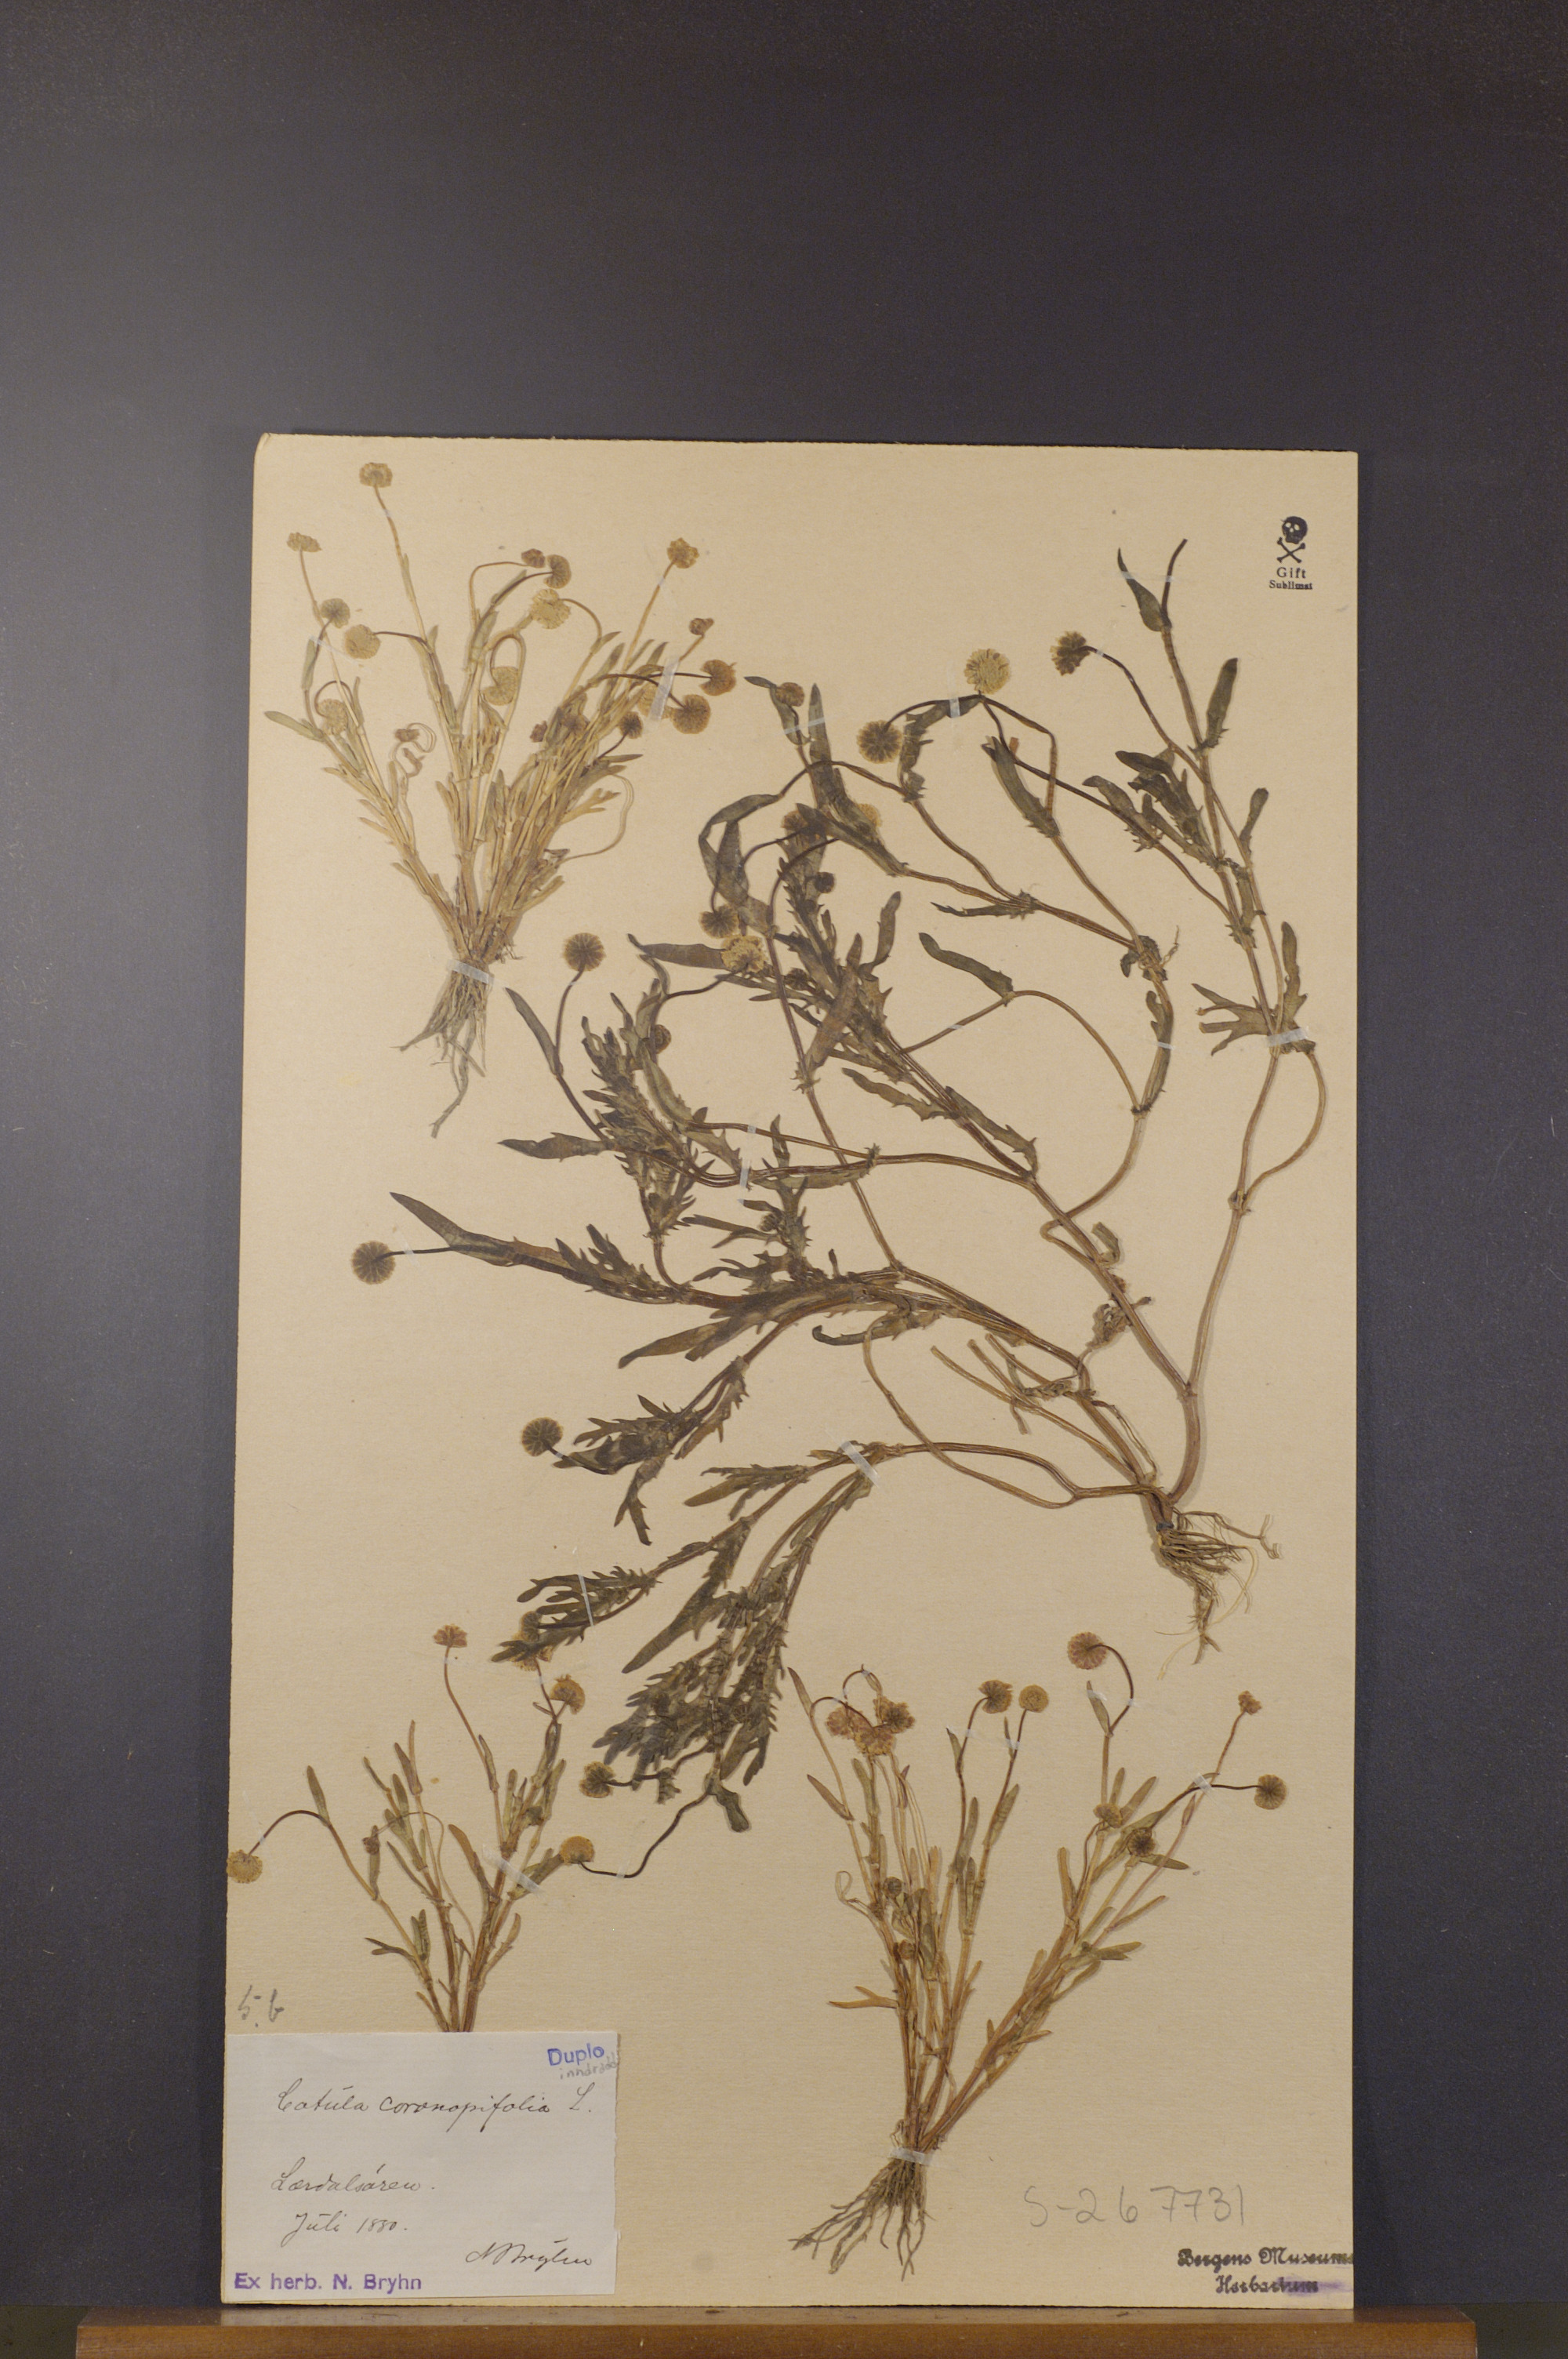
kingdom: Plantae
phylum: Tracheophyta
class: Magnoliopsida
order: Asterales
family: Asteraceae
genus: Cotula
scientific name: Cotula coronopifolia
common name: Buttonweed
